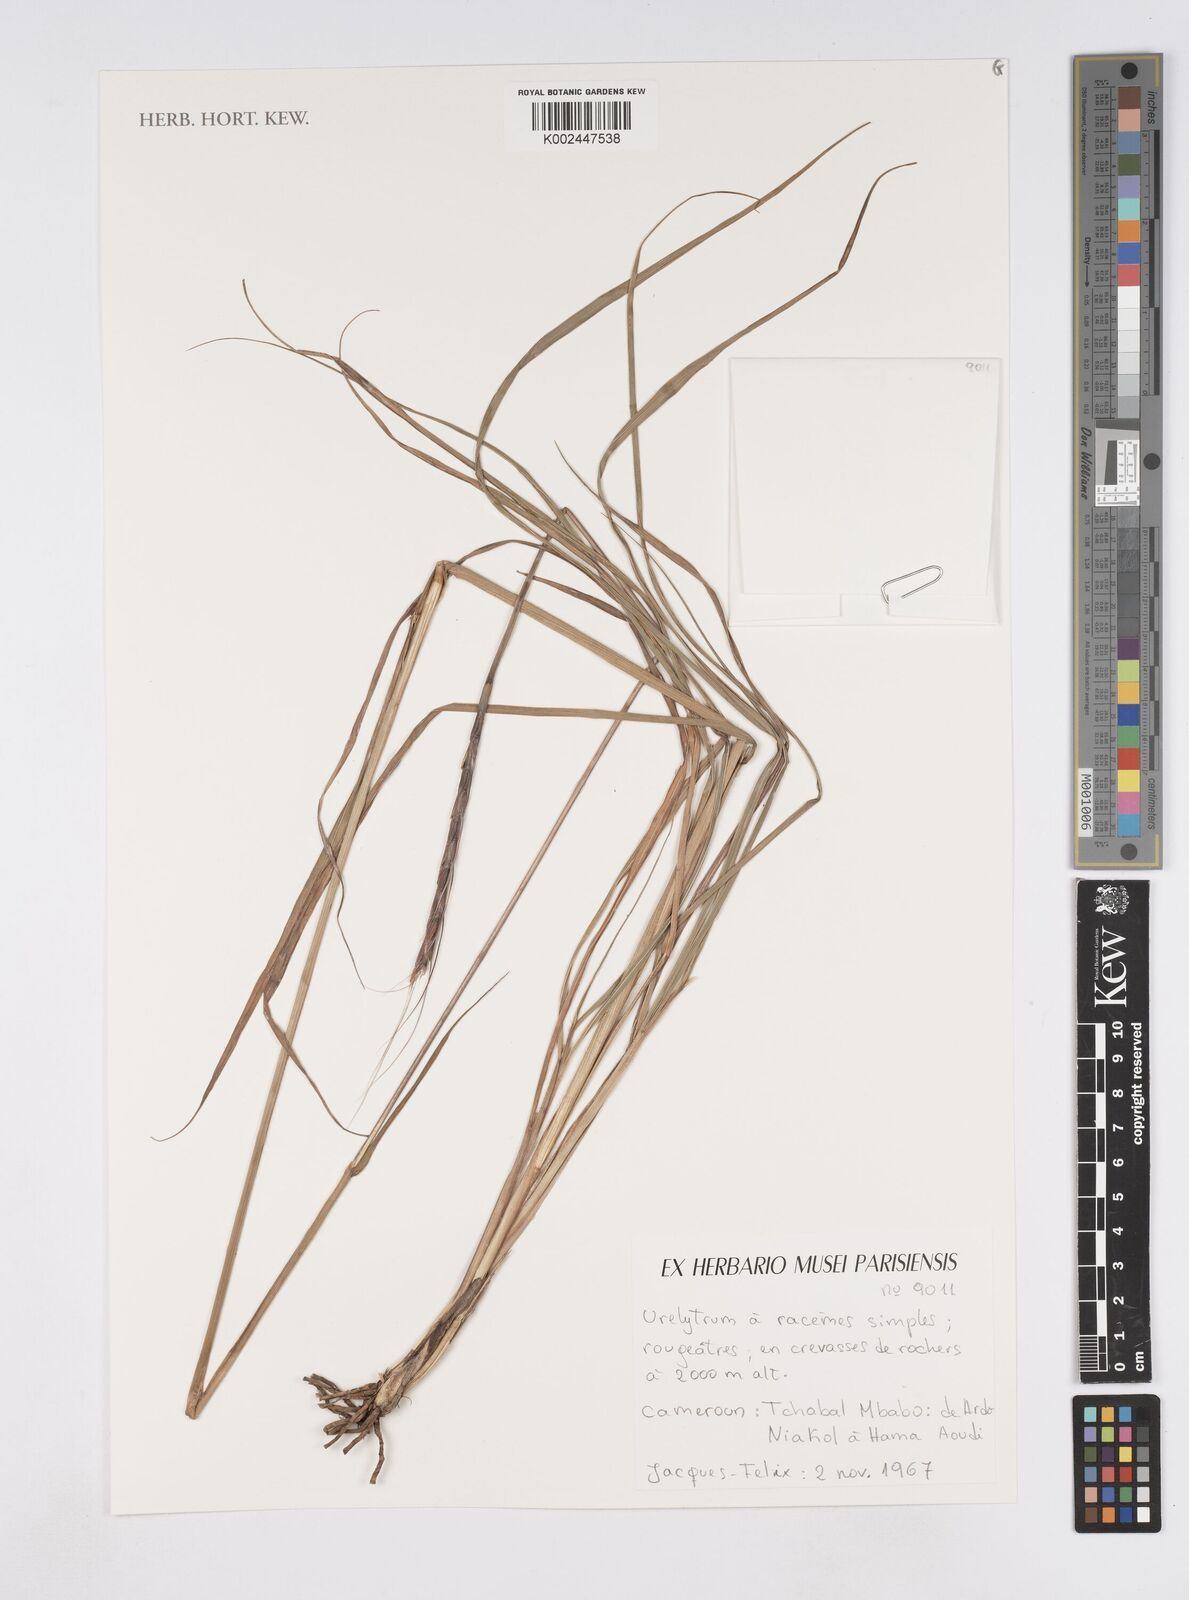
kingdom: Plantae
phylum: Tracheophyta
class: Liliopsida
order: Poales
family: Poaceae
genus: Urelytrum
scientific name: Urelytrum
